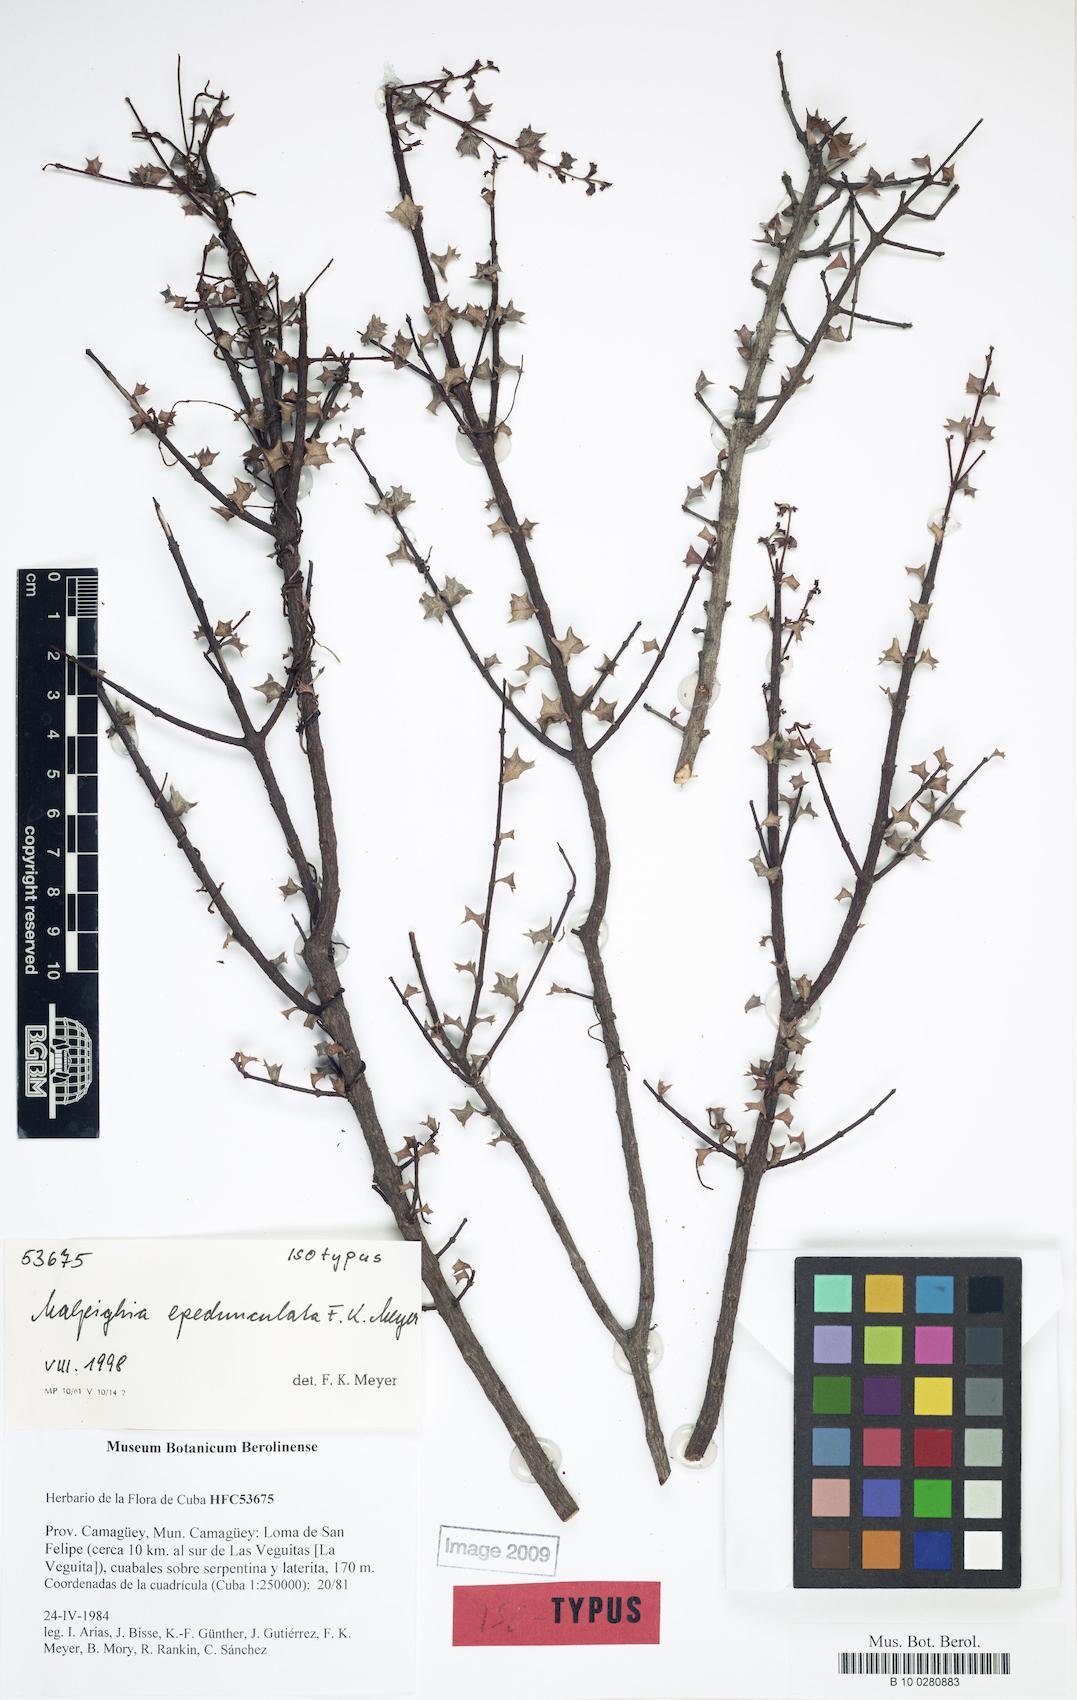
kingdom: Plantae
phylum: Tracheophyta
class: Magnoliopsida
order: Malpighiales
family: Malpighiaceae
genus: Malpighia
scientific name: Malpighia epedunculata
